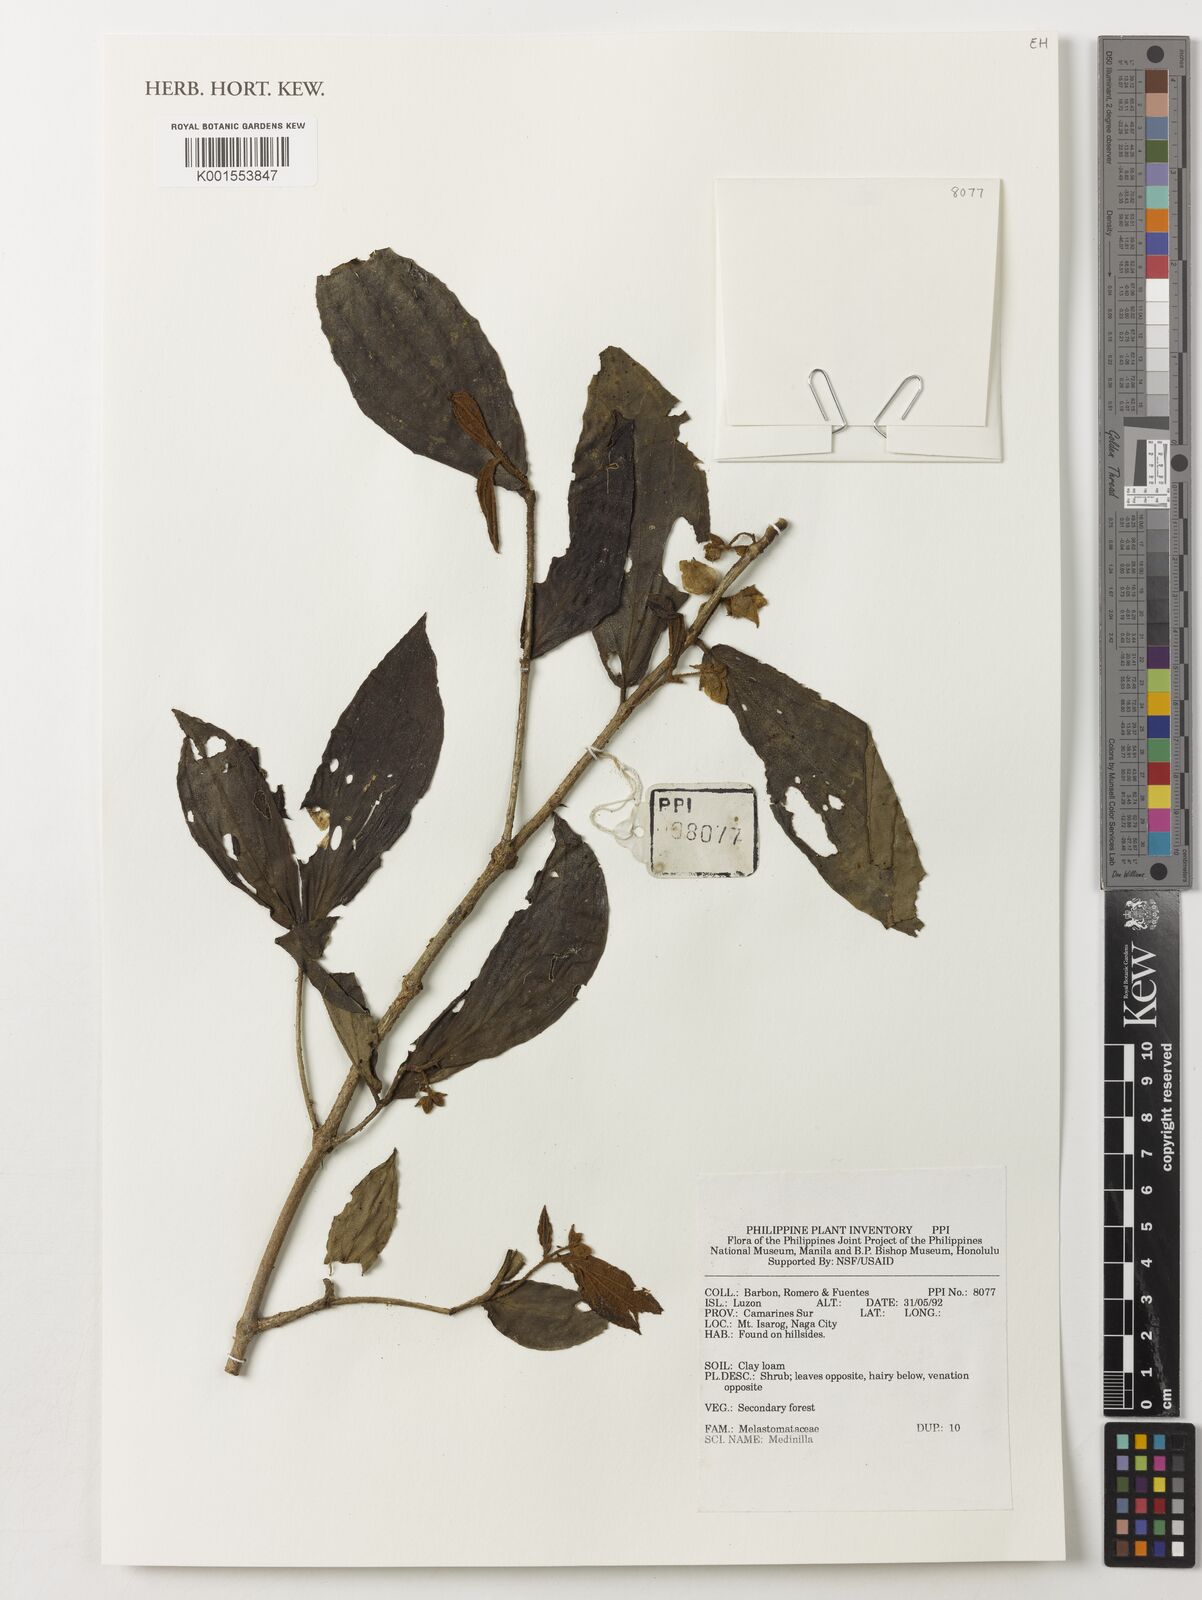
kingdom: Plantae
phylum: Tracheophyta
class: Magnoliopsida
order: Myrtales
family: Melastomataceae
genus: Medinilla
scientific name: Medinilla
